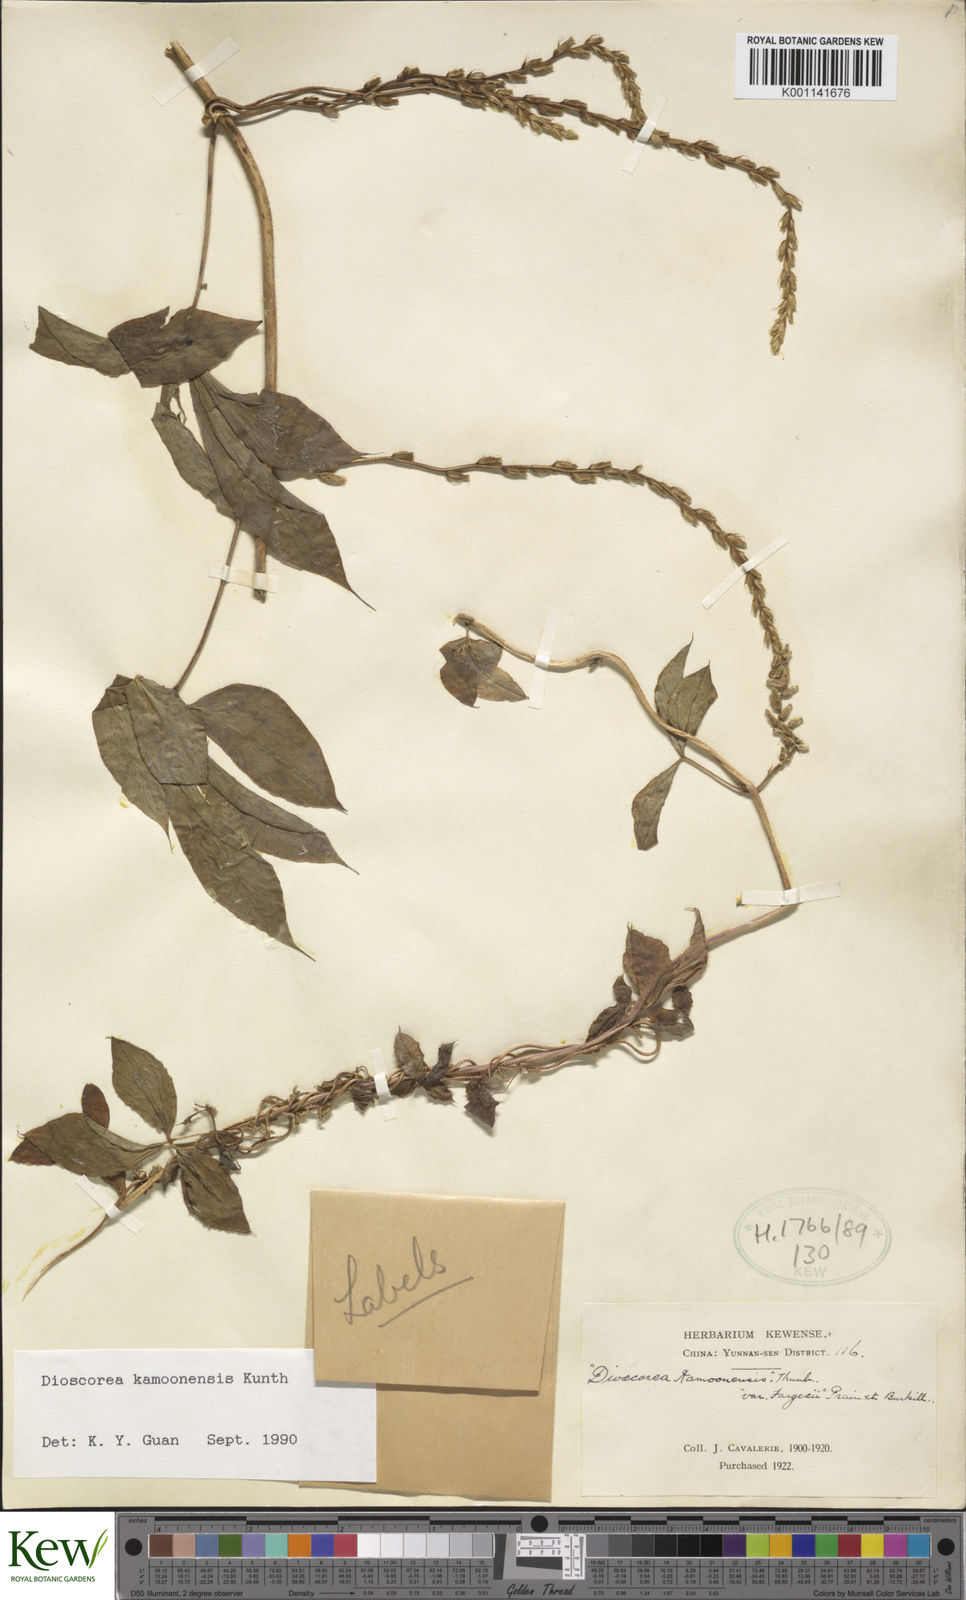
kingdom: Plantae
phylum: Tracheophyta
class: Liliopsida
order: Dioscoreales
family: Dioscoreaceae
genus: Dioscorea
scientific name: Dioscorea kamoonensis
